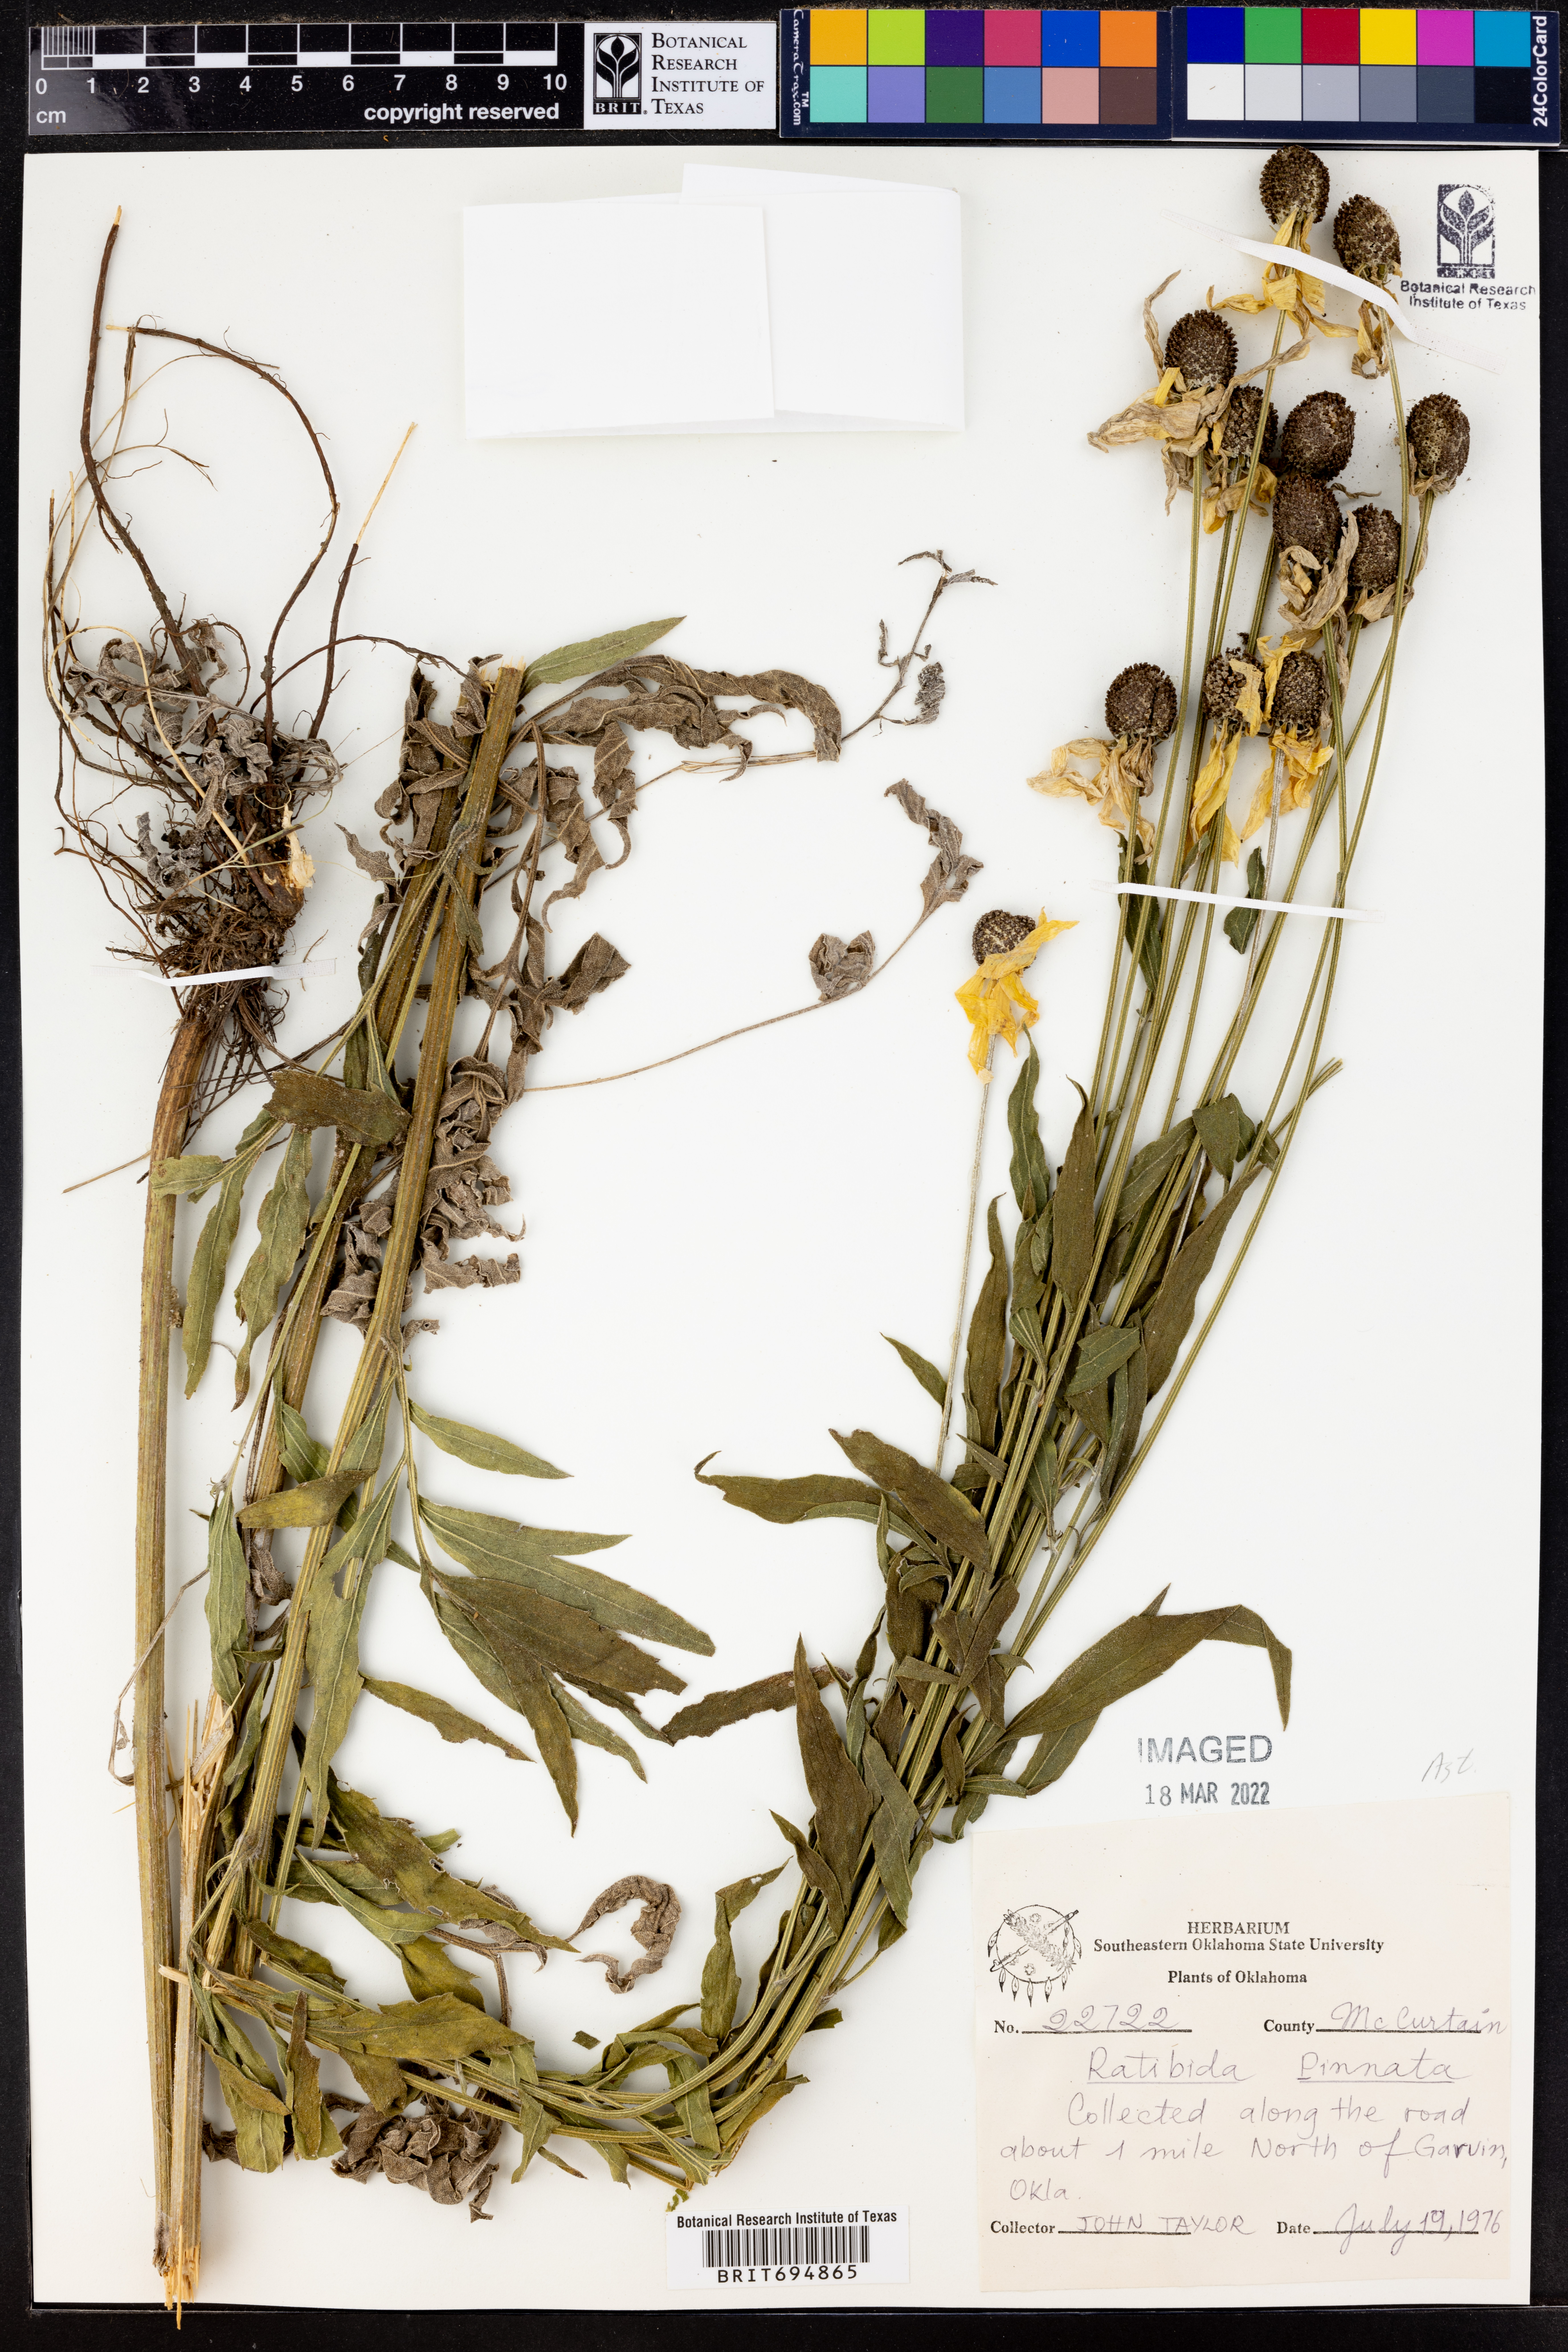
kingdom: Plantae
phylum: Tracheophyta
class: Magnoliopsida
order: Asterales
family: Asteraceae
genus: Ratibida
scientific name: Ratibida pinnata
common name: Drooping prairie-coneflower
